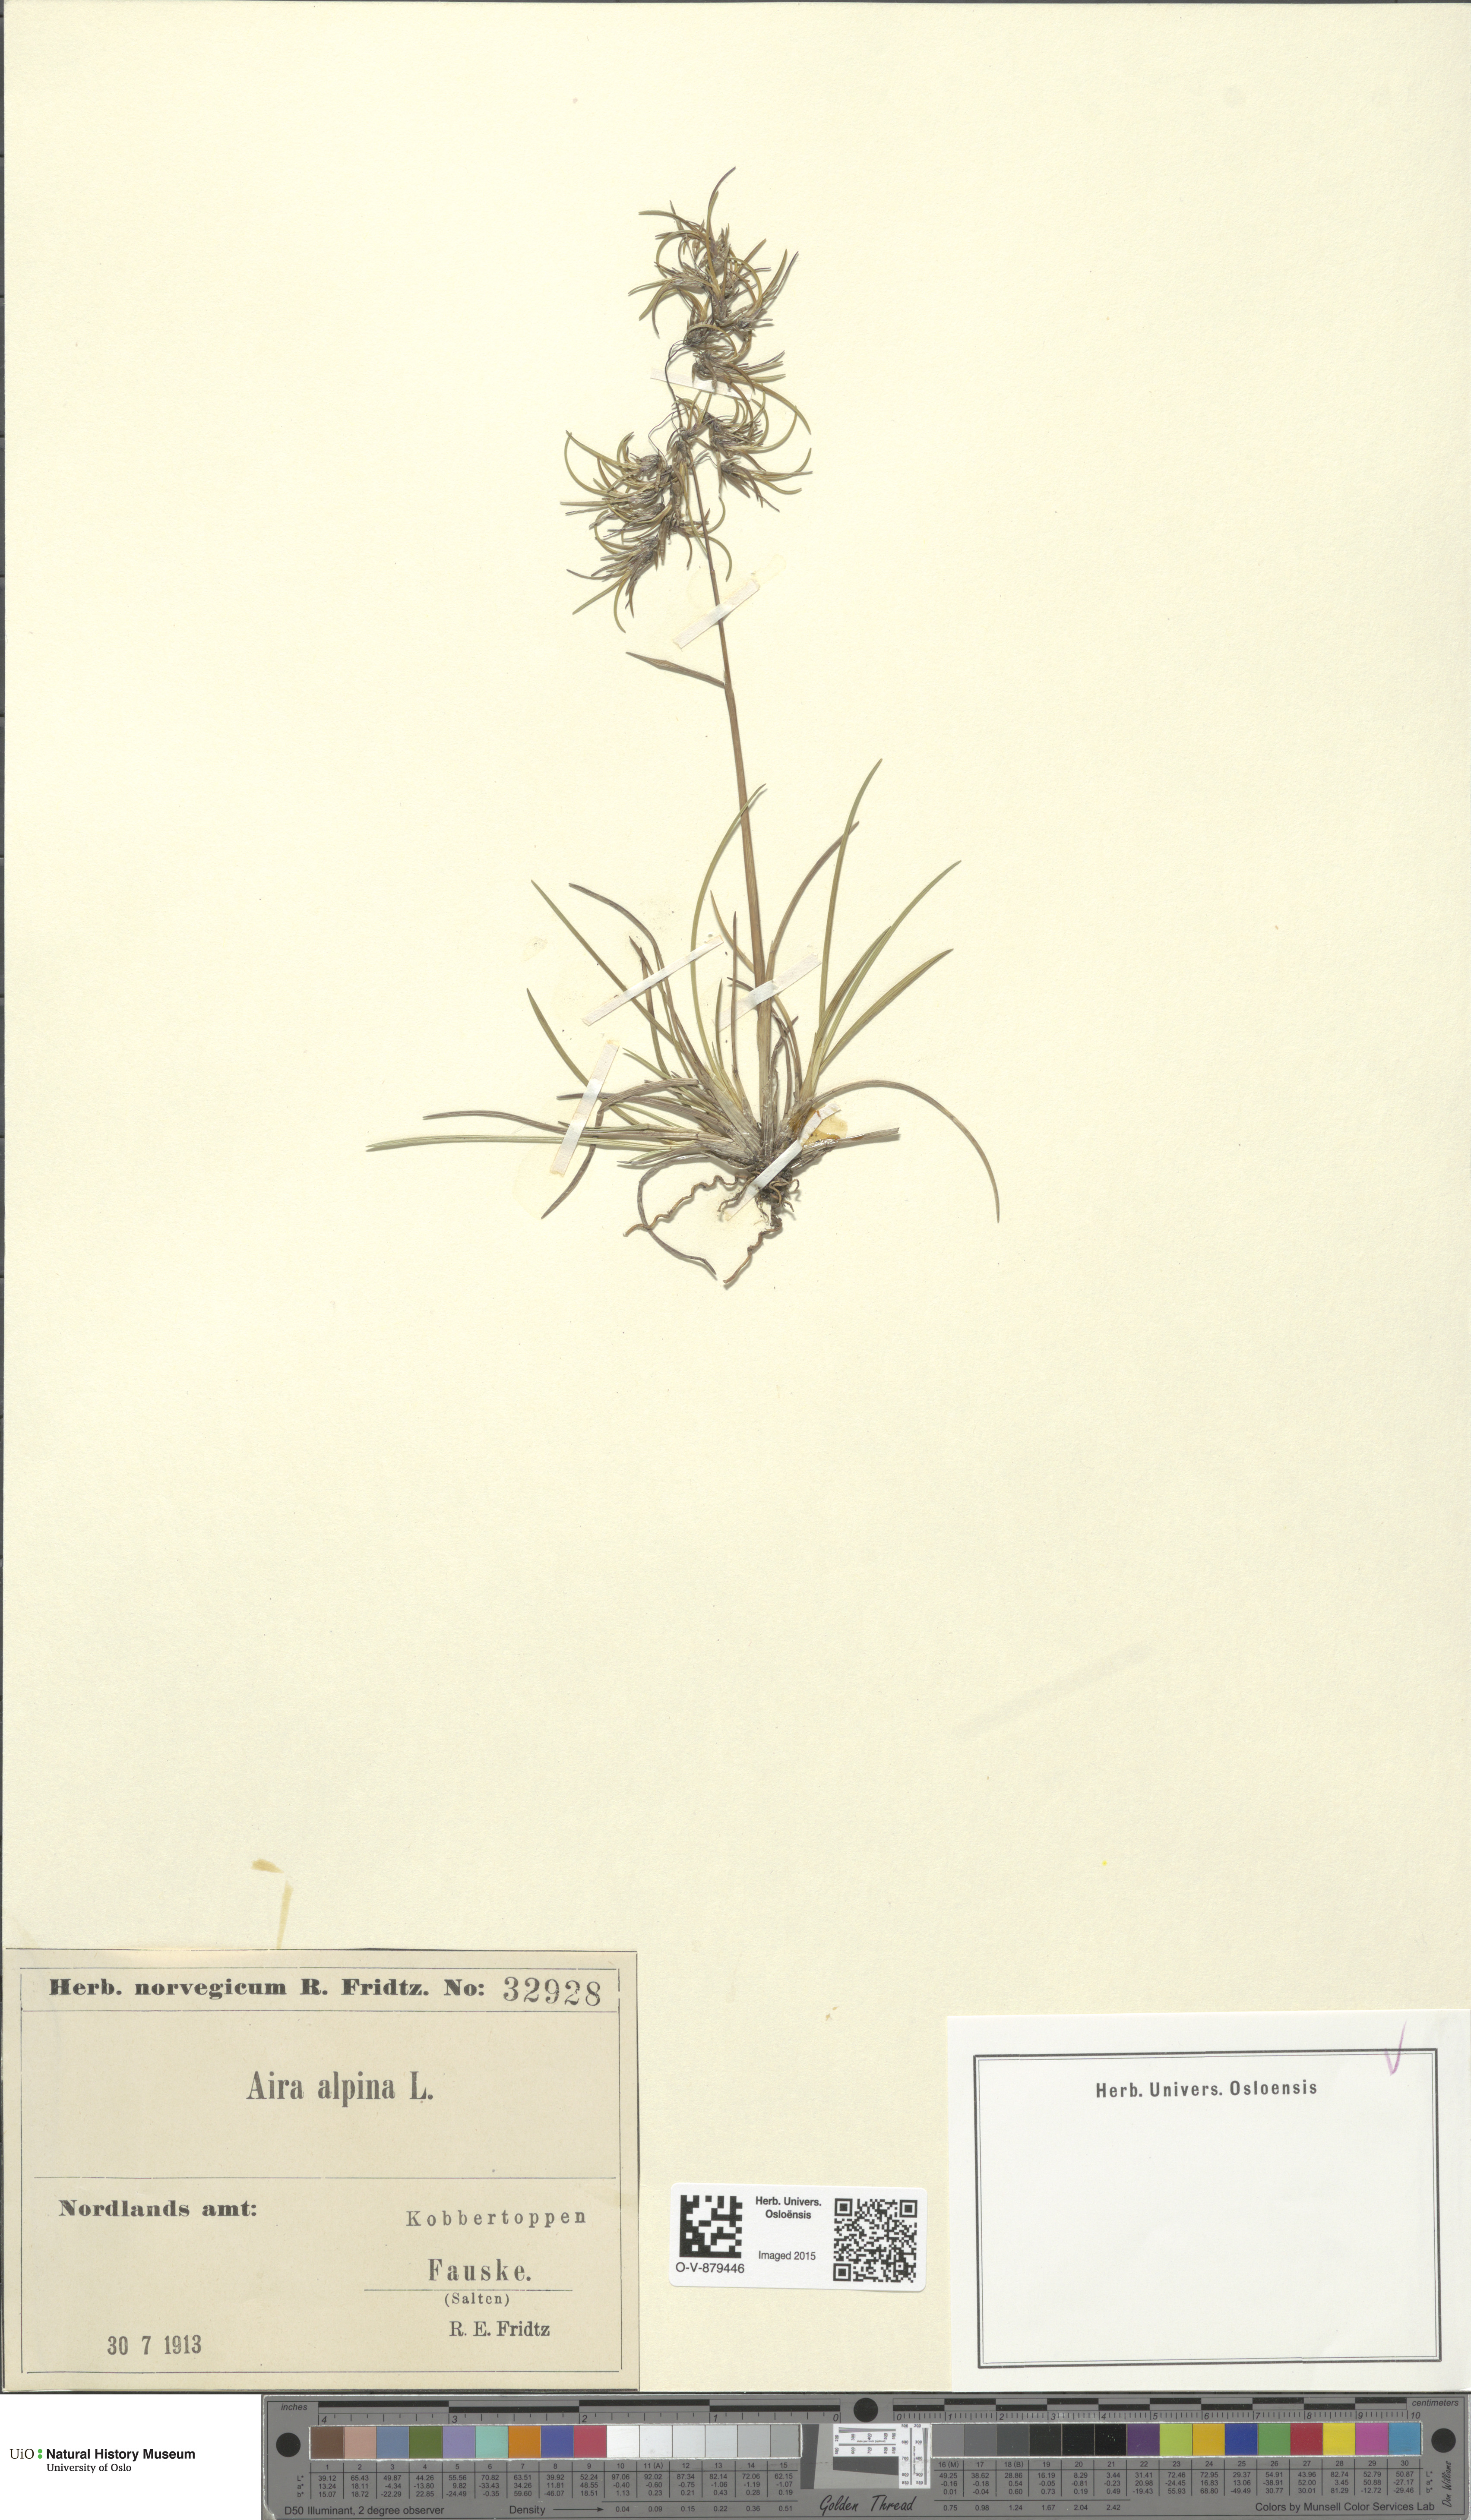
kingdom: Plantae
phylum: Tracheophyta
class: Liliopsida
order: Poales
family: Poaceae
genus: Deschampsia
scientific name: Deschampsia cespitosa
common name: Tufted hair-grass
